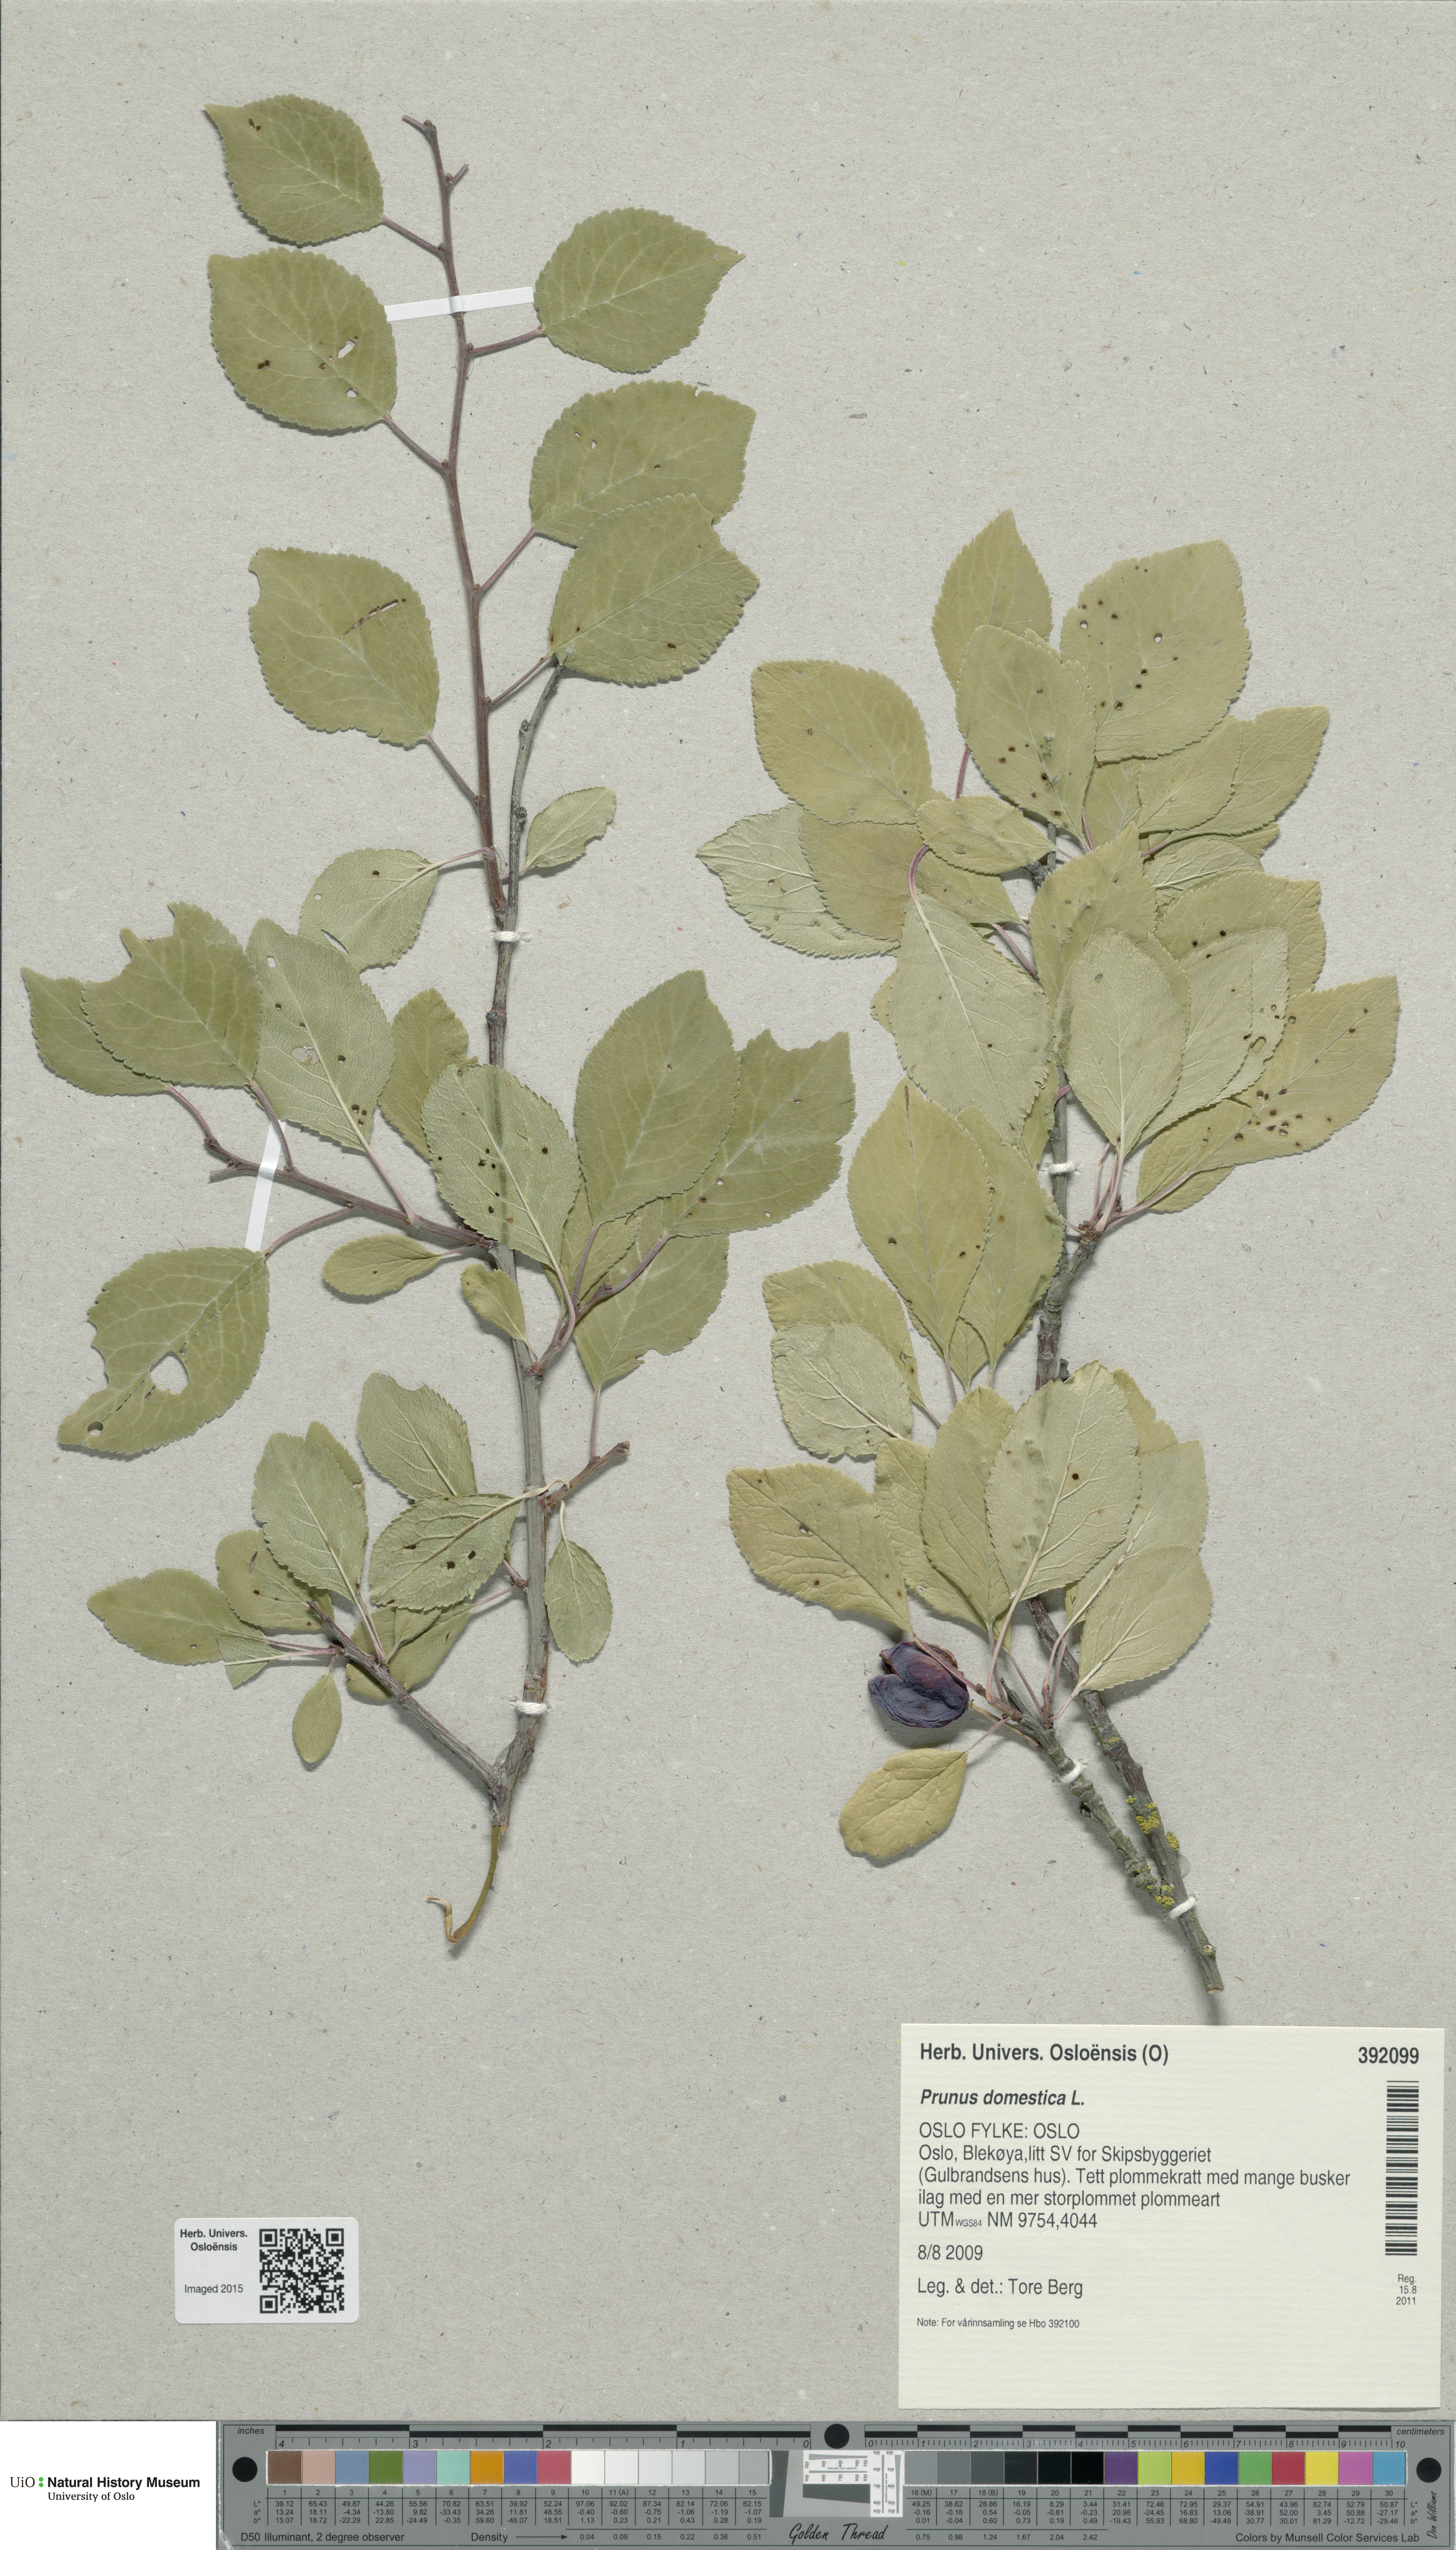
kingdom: Plantae
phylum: Tracheophyta
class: Magnoliopsida
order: Rosales
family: Rosaceae
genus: Prunus
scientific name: Prunus domestica
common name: Wild plum
